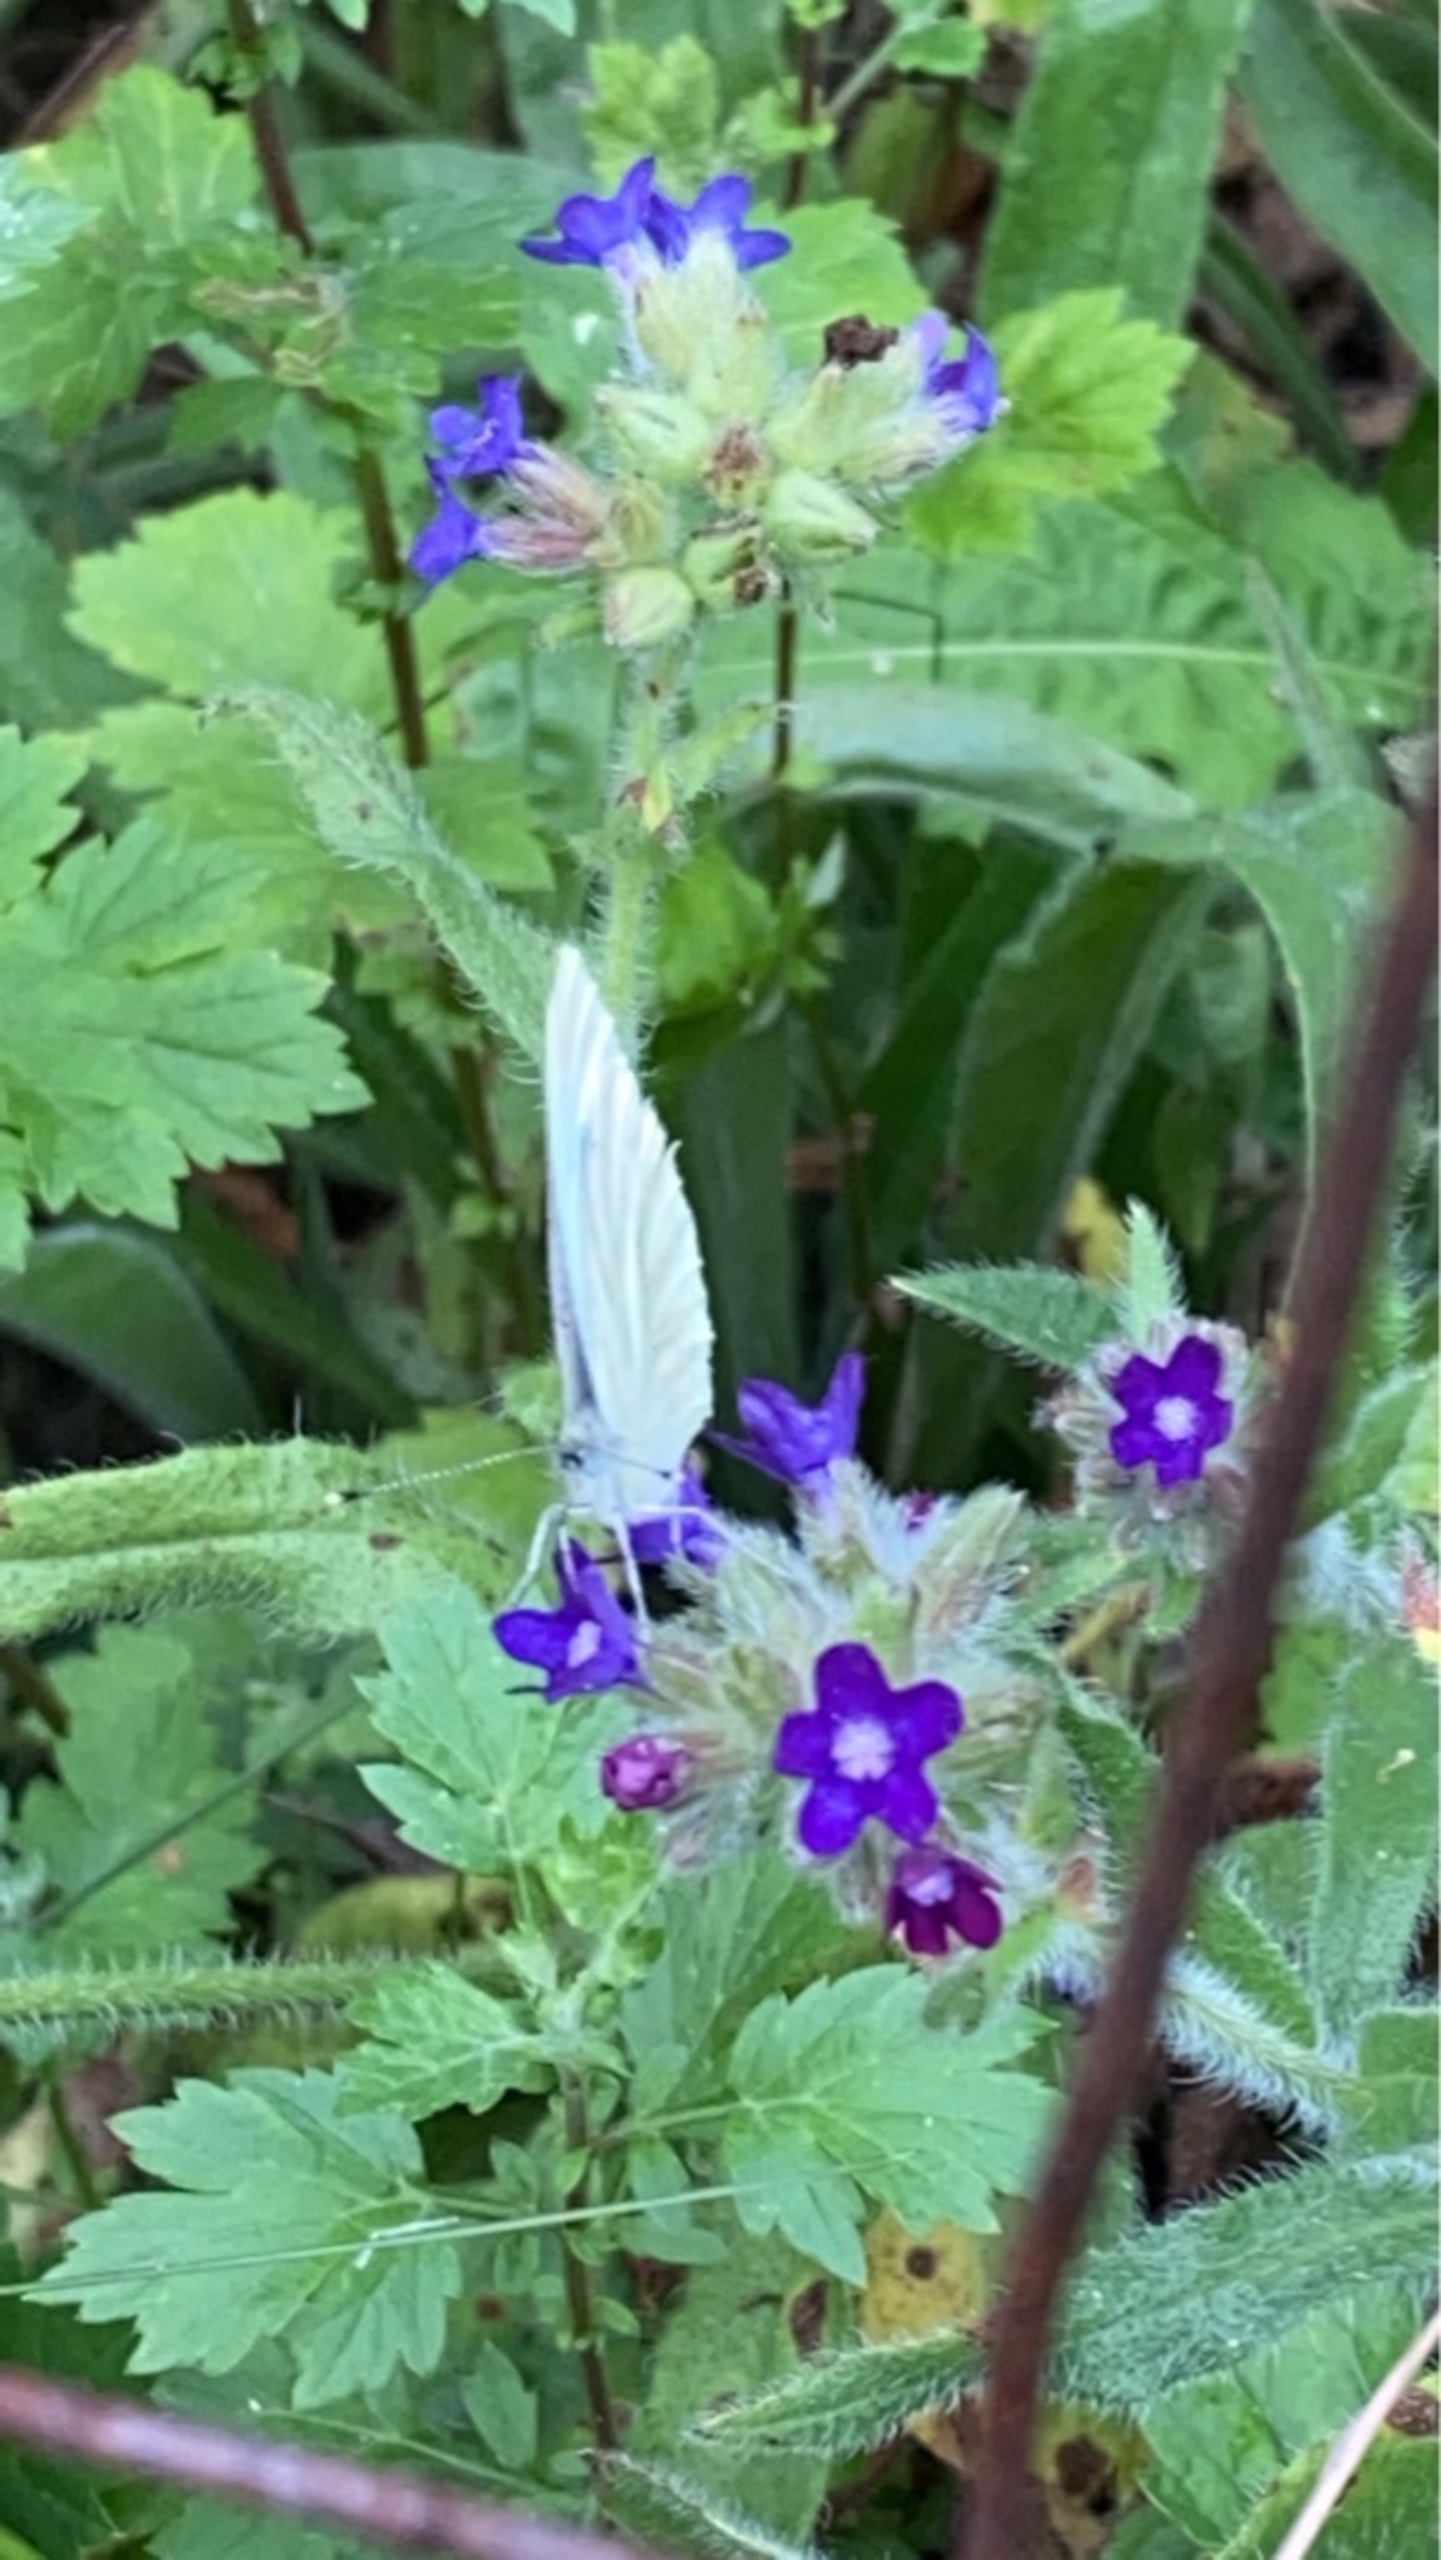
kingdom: Animalia
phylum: Arthropoda
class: Insecta
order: Lepidoptera
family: Pieridae
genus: Pieris
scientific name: Pieris napi
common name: Grønåret kålsommerfugl
